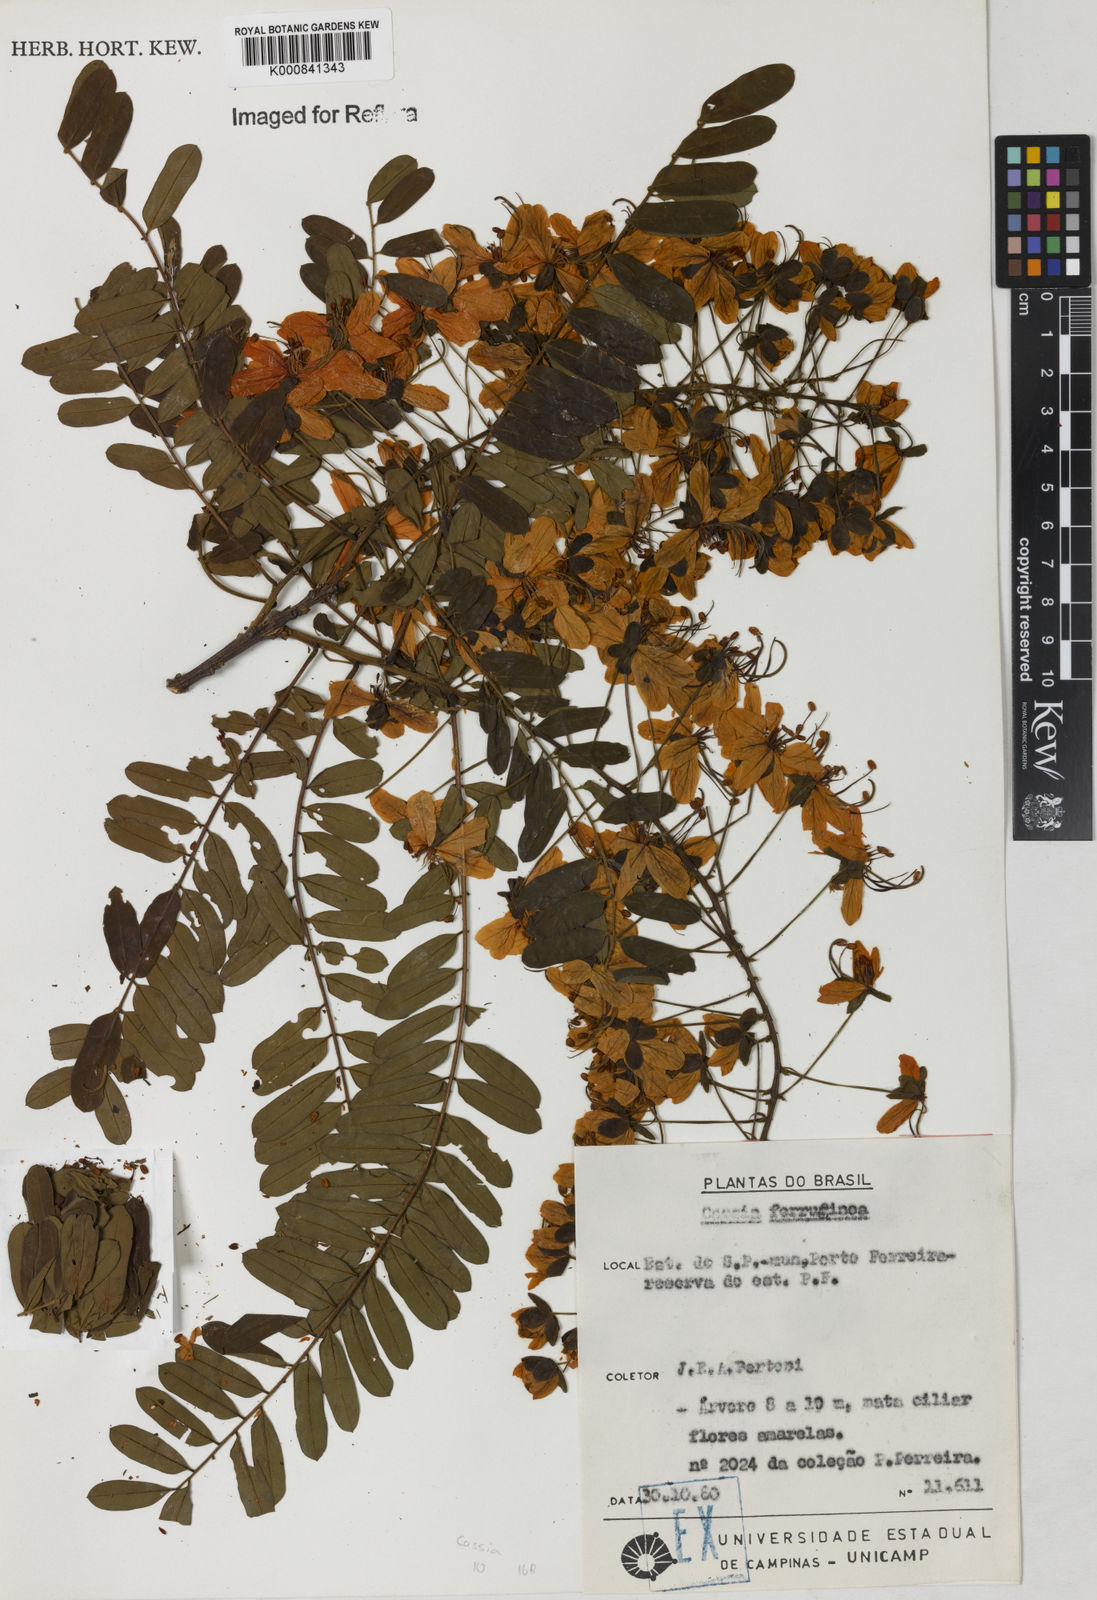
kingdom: Plantae
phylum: Tracheophyta
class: Magnoliopsida
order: Fabales
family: Fabaceae
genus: Cassia
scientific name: Cassia ferruginea
